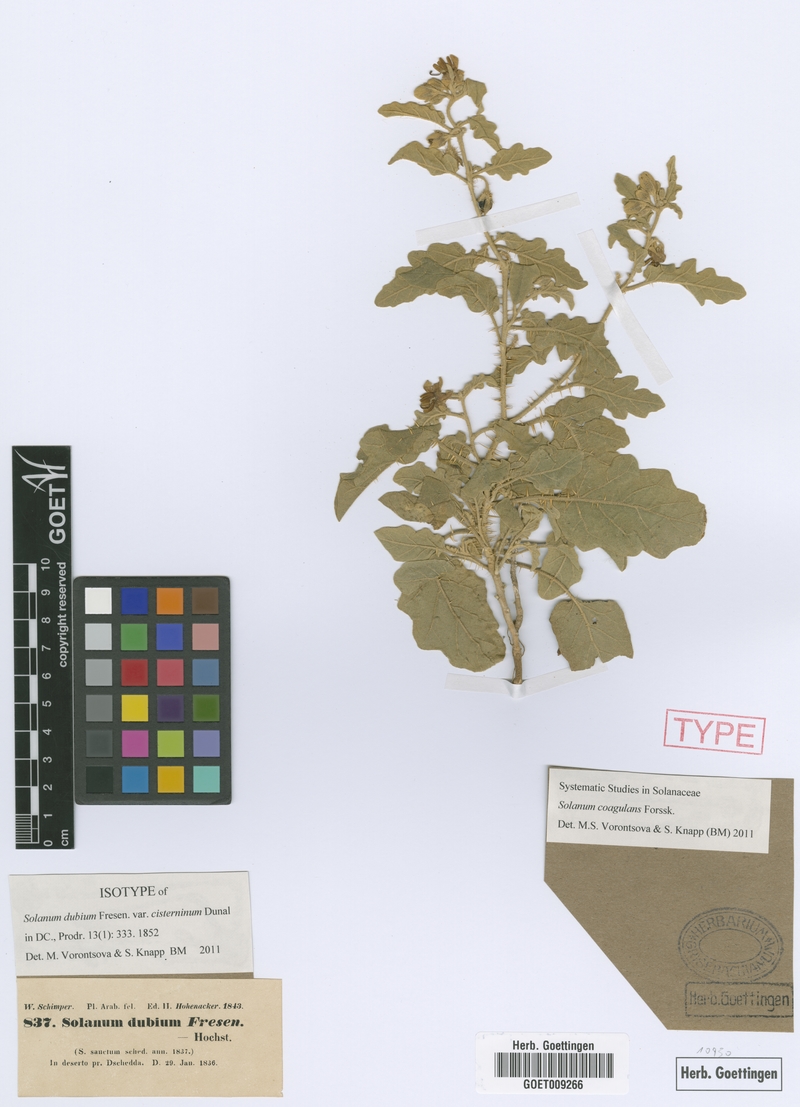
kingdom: Plantae
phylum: Tracheophyta
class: Magnoliopsida
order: Solanales
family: Solanaceae
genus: Solanum
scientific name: Solanum coagulans
